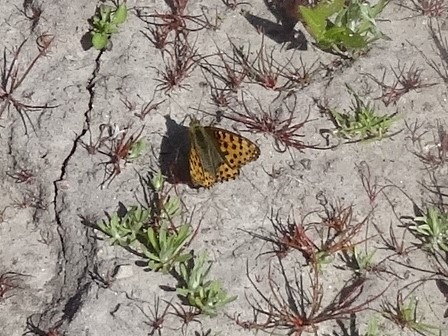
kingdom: Animalia
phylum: Arthropoda
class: Insecta
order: Lepidoptera
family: Nymphalidae
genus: Issoria
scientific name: Issoria lathonia
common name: Storplettet perlemorsommerfugl
